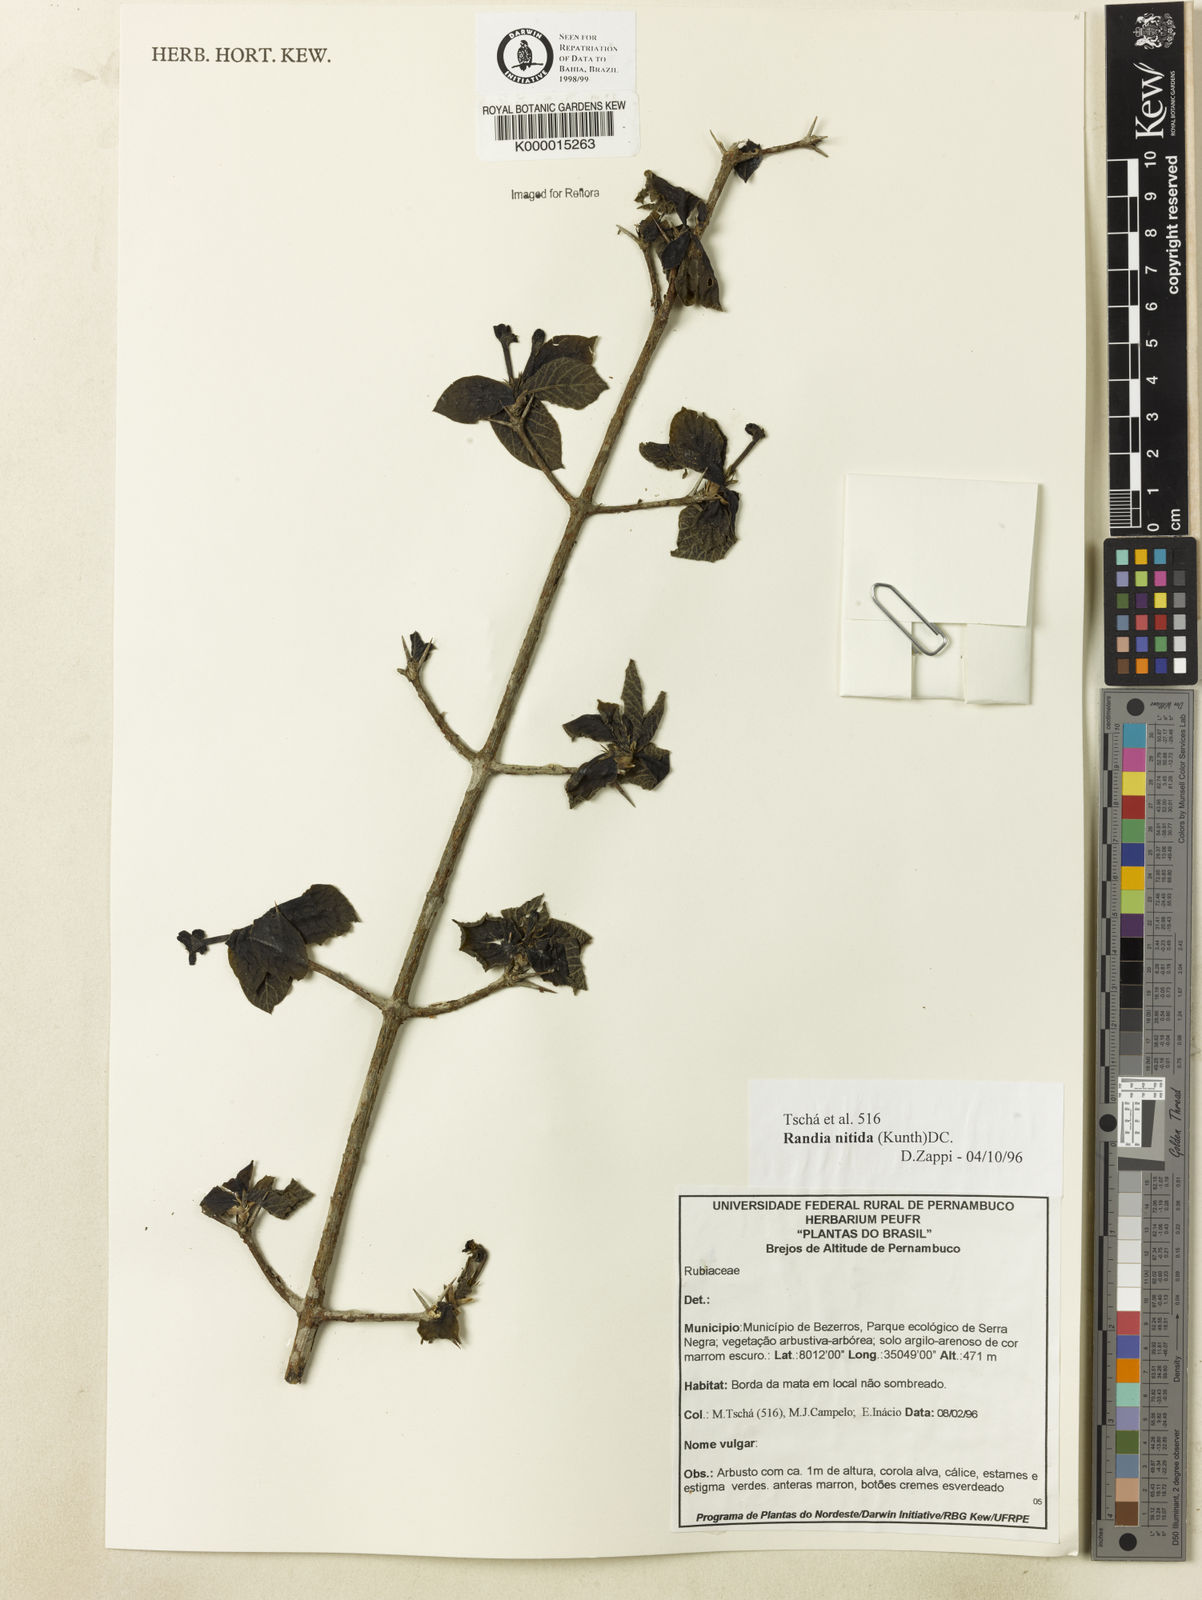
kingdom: Plantae
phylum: Tracheophyta
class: Magnoliopsida
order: Gentianales
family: Rubiaceae
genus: Randia
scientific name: Randia nitida
